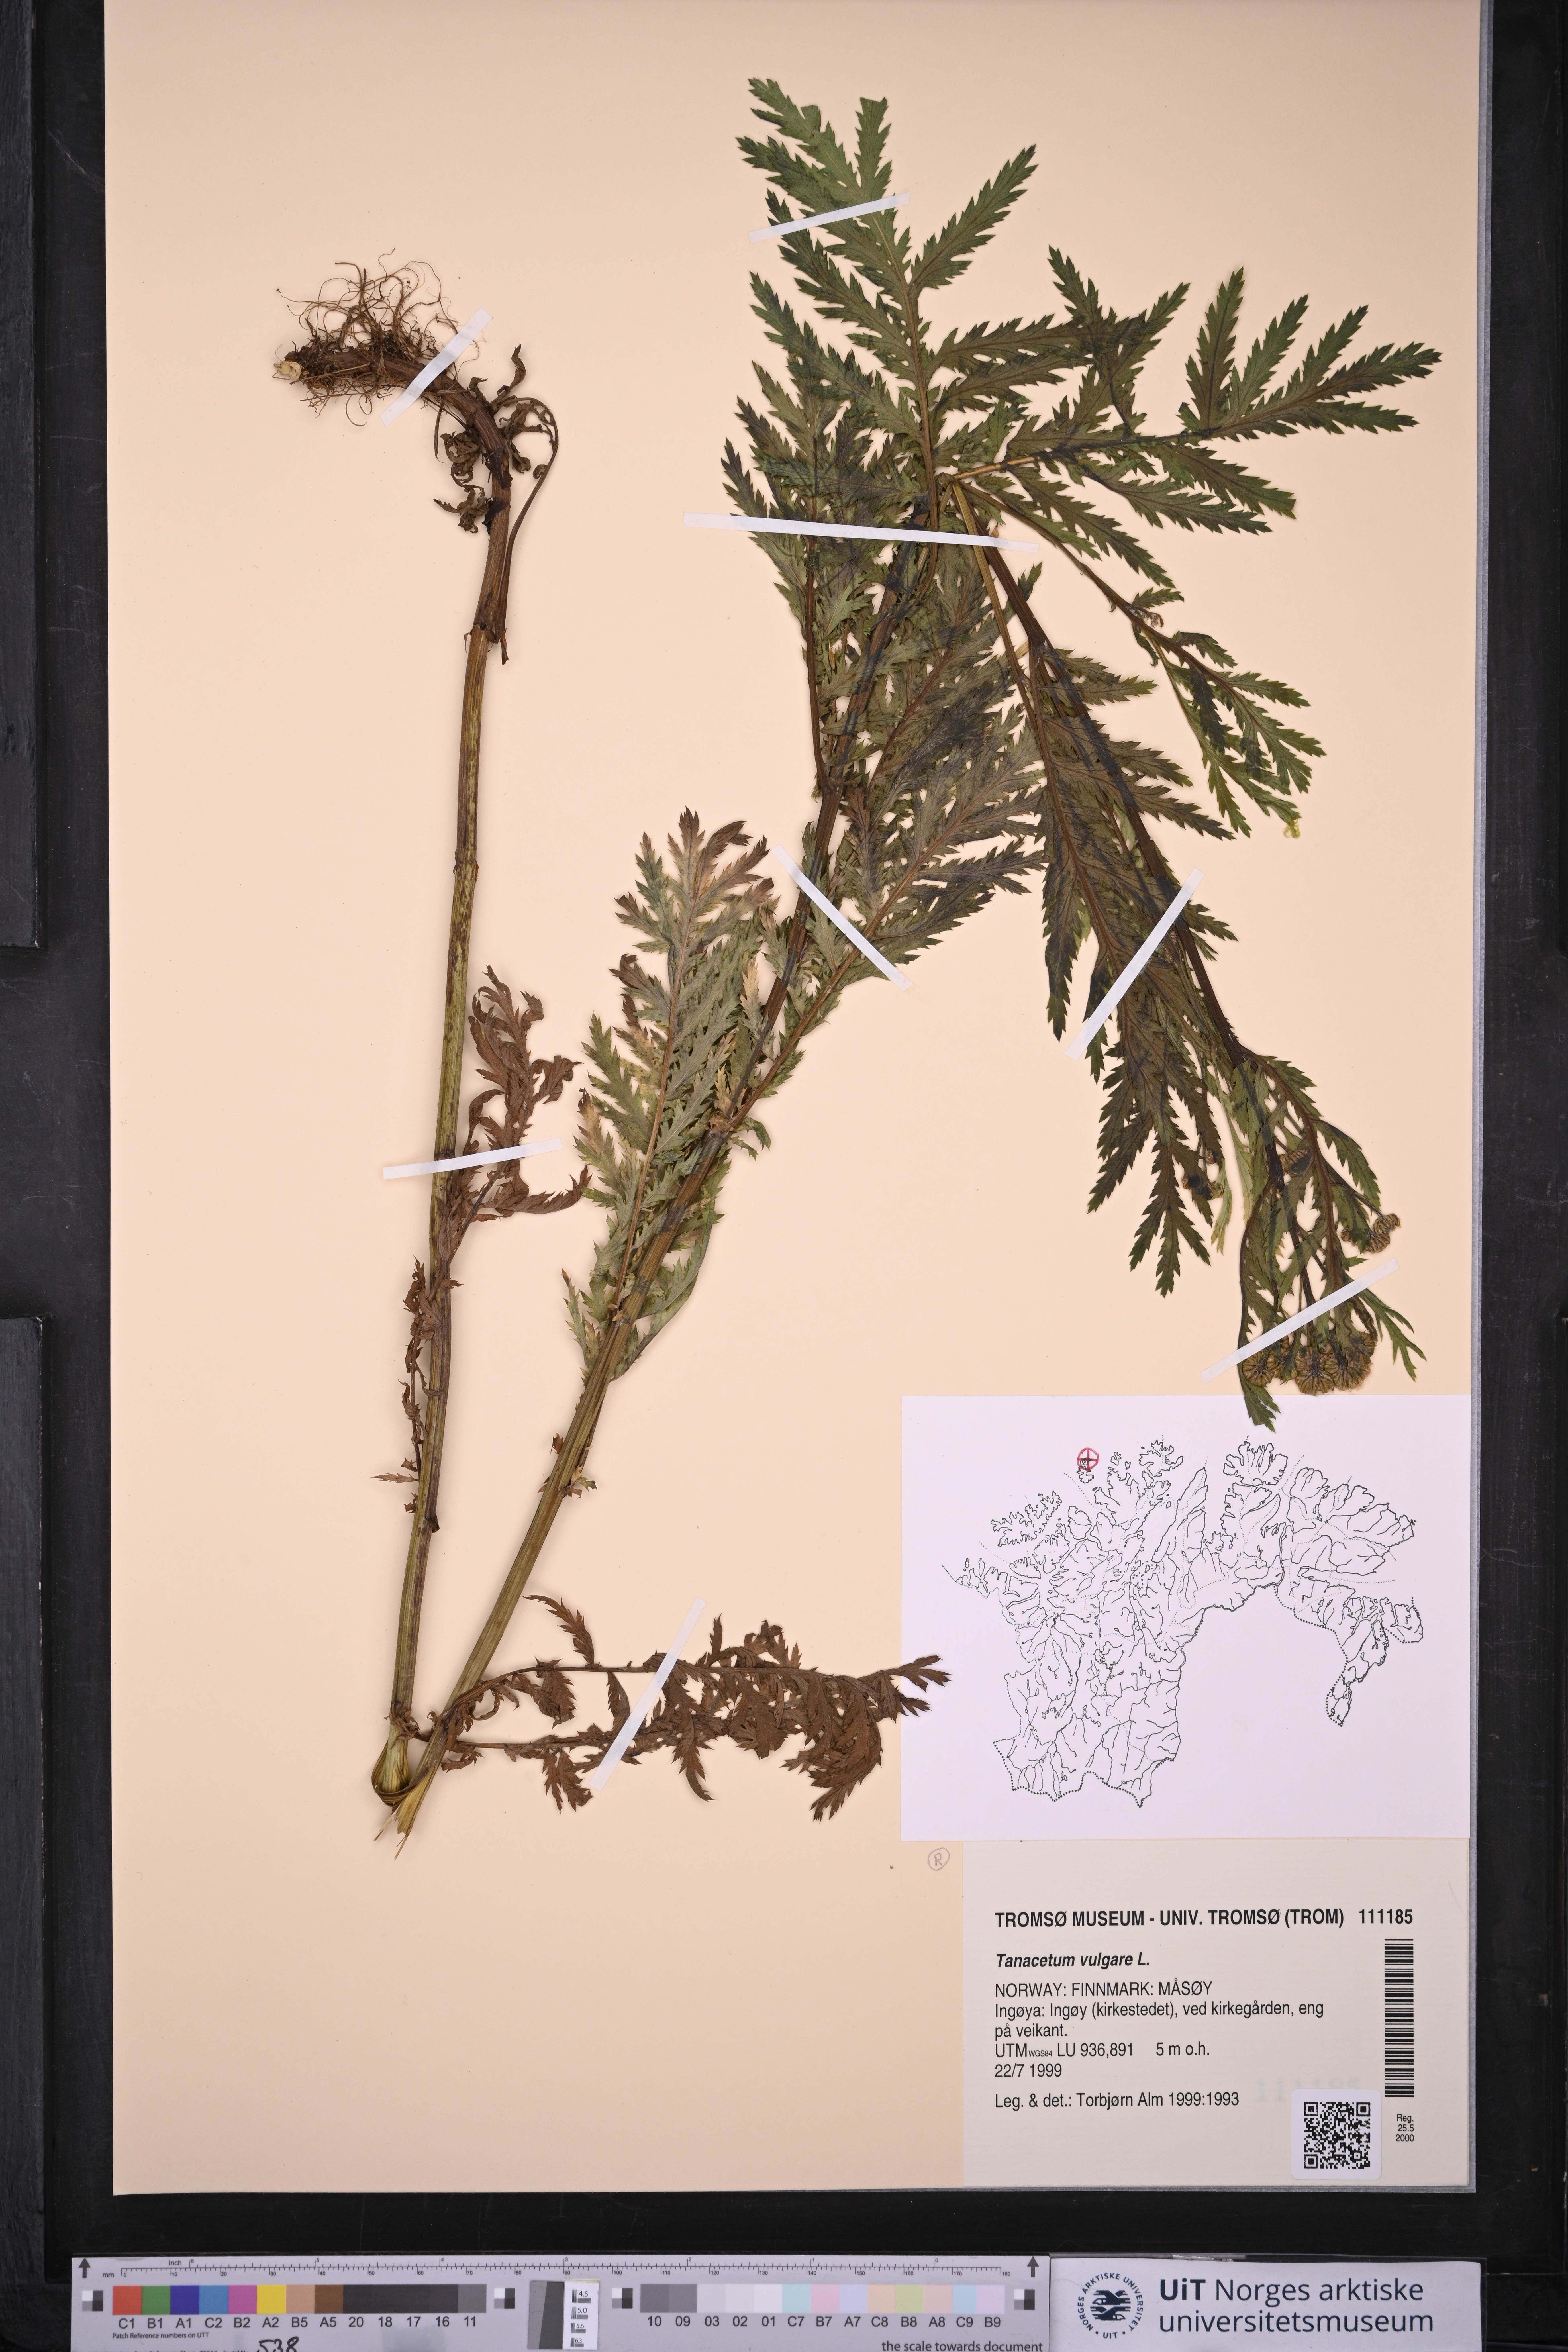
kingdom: Plantae
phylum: Tracheophyta
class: Magnoliopsida
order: Asterales
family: Asteraceae
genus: Tanacetum
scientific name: Tanacetum vulgare
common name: Common tansy
